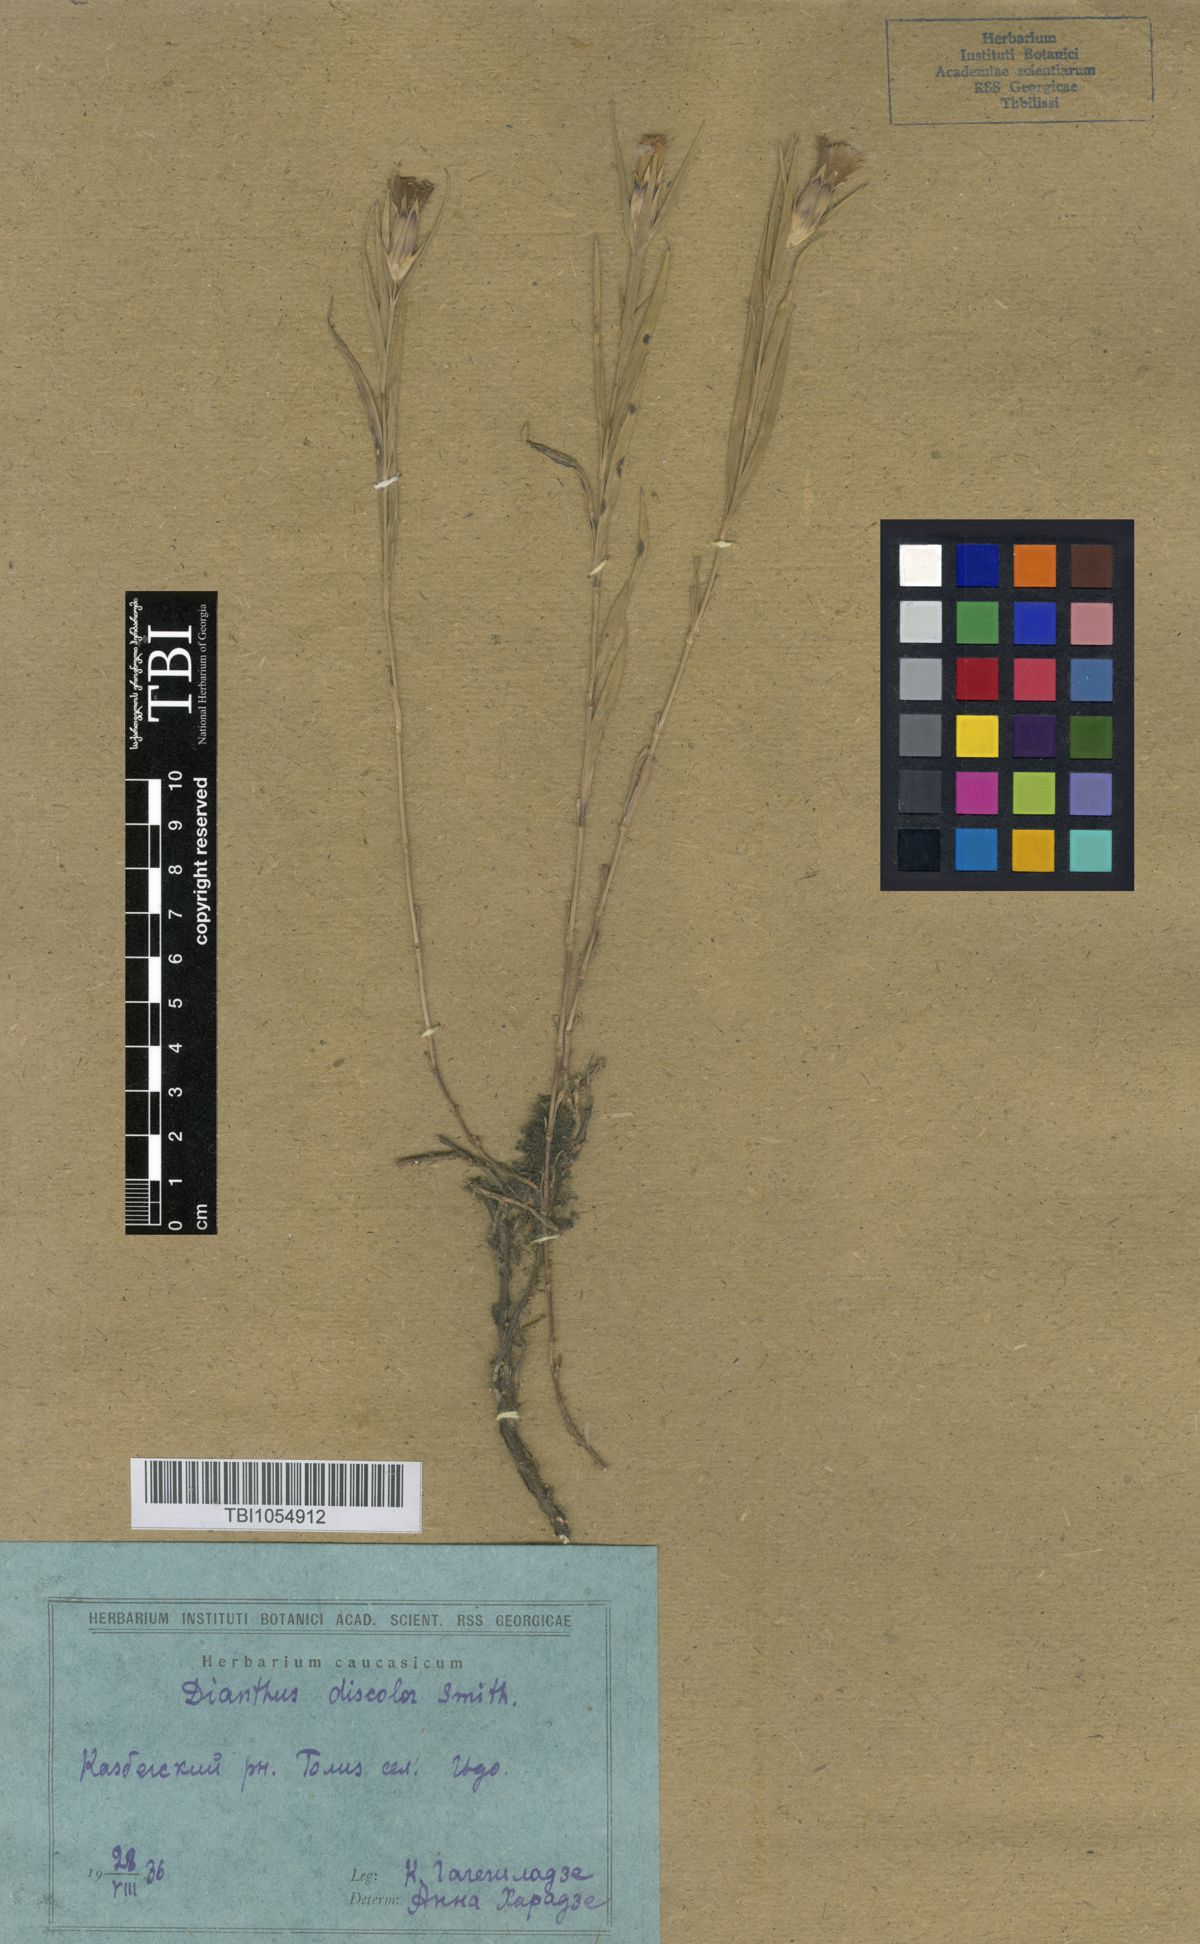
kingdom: Plantae
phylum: Tracheophyta
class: Magnoliopsida
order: Caryophyllales
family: Caryophyllaceae
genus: Dianthus
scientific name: Dianthus caucaseus
